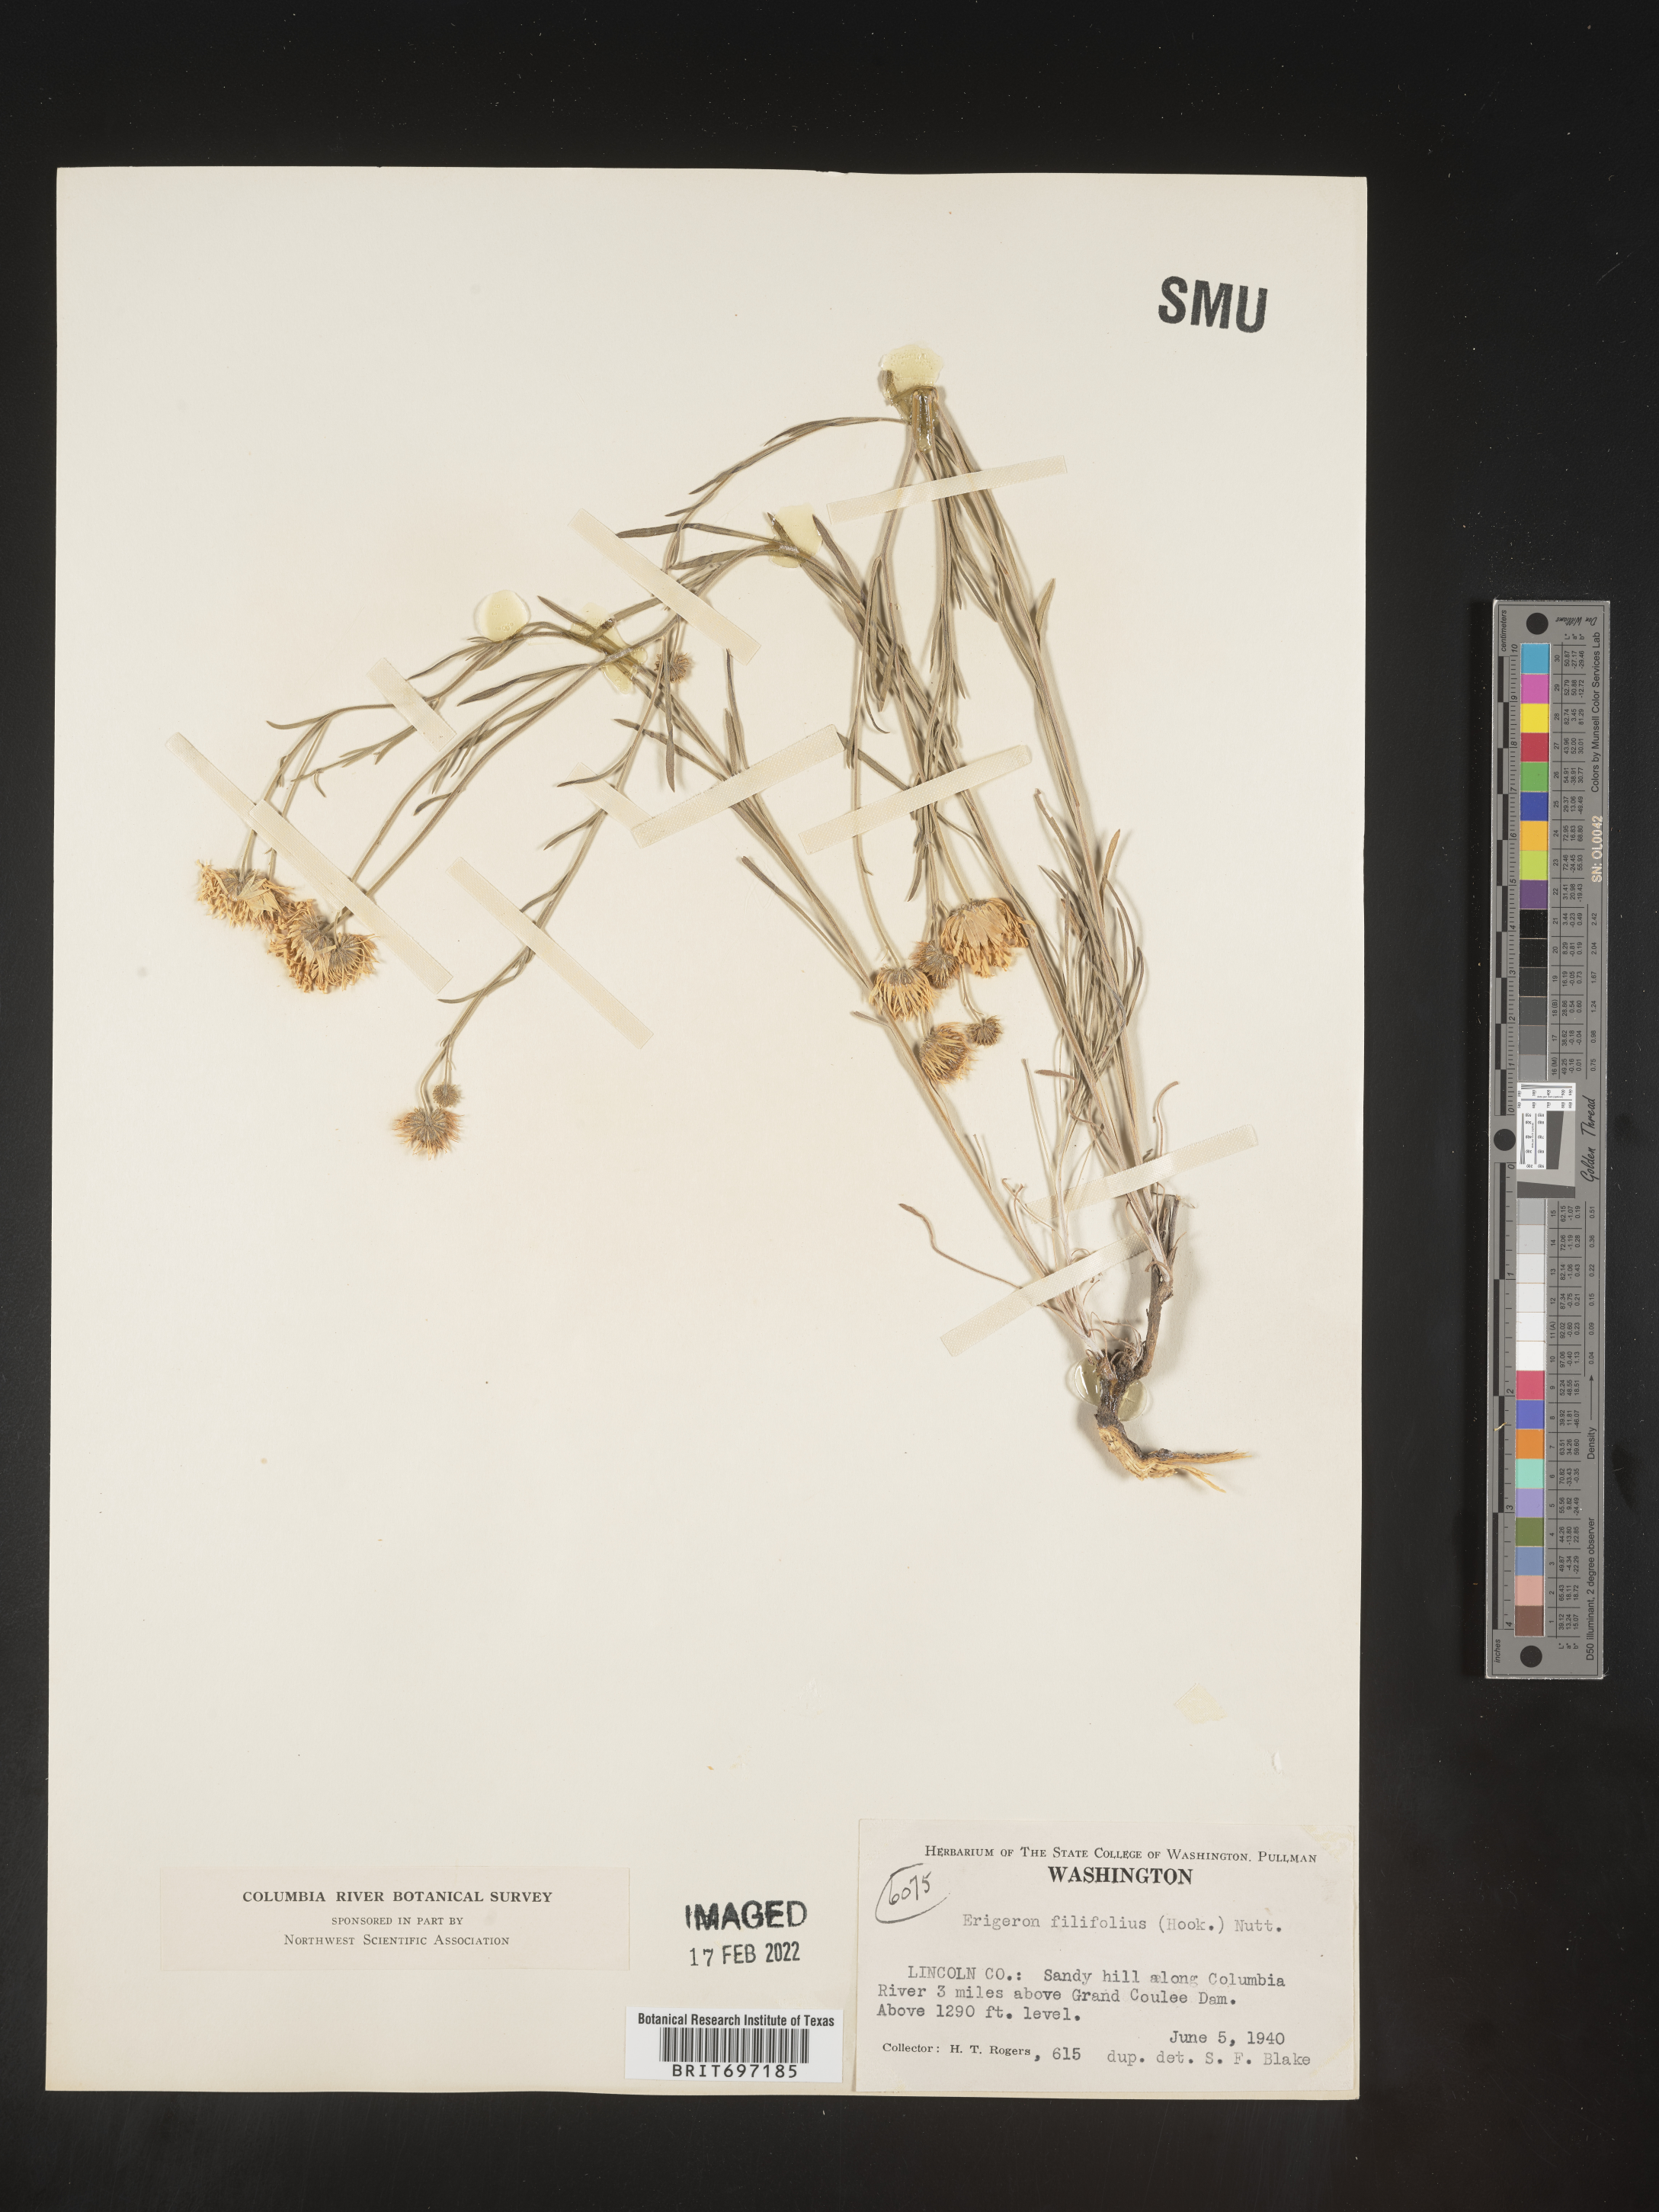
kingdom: Plantae
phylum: Tracheophyta
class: Magnoliopsida
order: Asterales
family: Asteraceae
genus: Erigeron
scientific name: Erigeron filifolius
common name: Threadleaf fleabane
